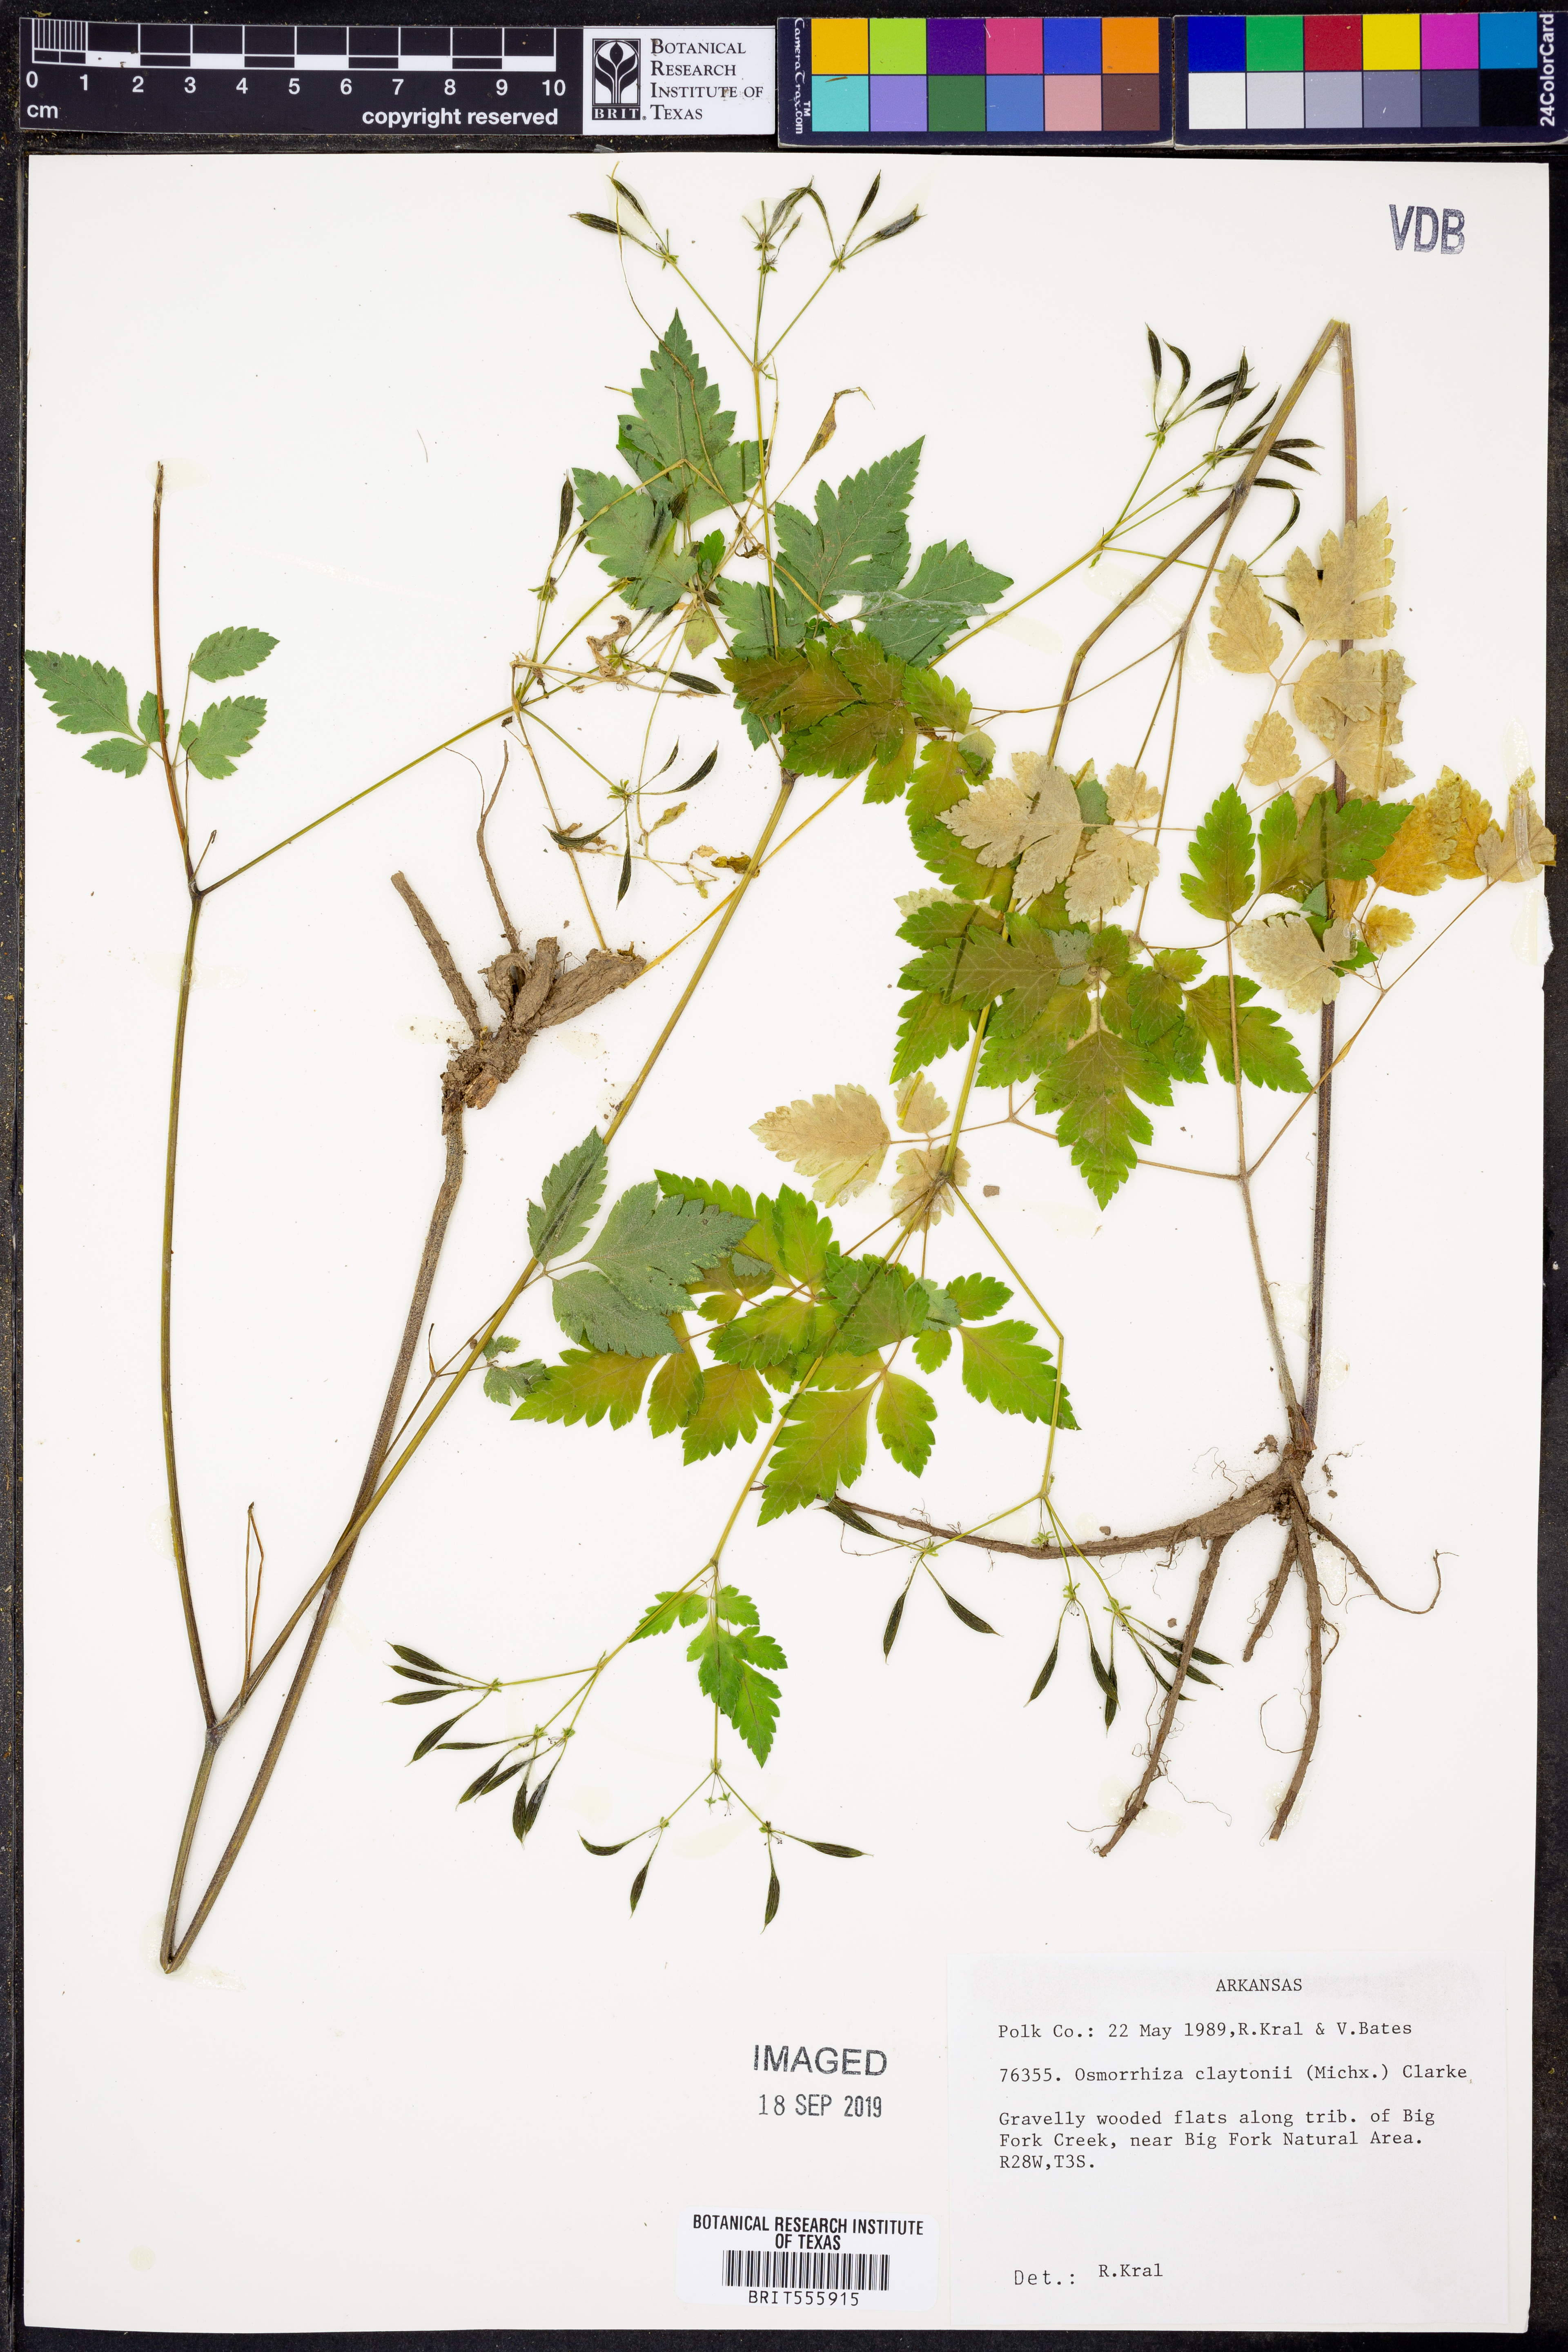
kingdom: Plantae
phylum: Tracheophyta
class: Magnoliopsida
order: Apiales
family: Apiaceae
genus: Osmorhiza
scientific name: Osmorhiza claytonii
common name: Hairy sweet cicely
